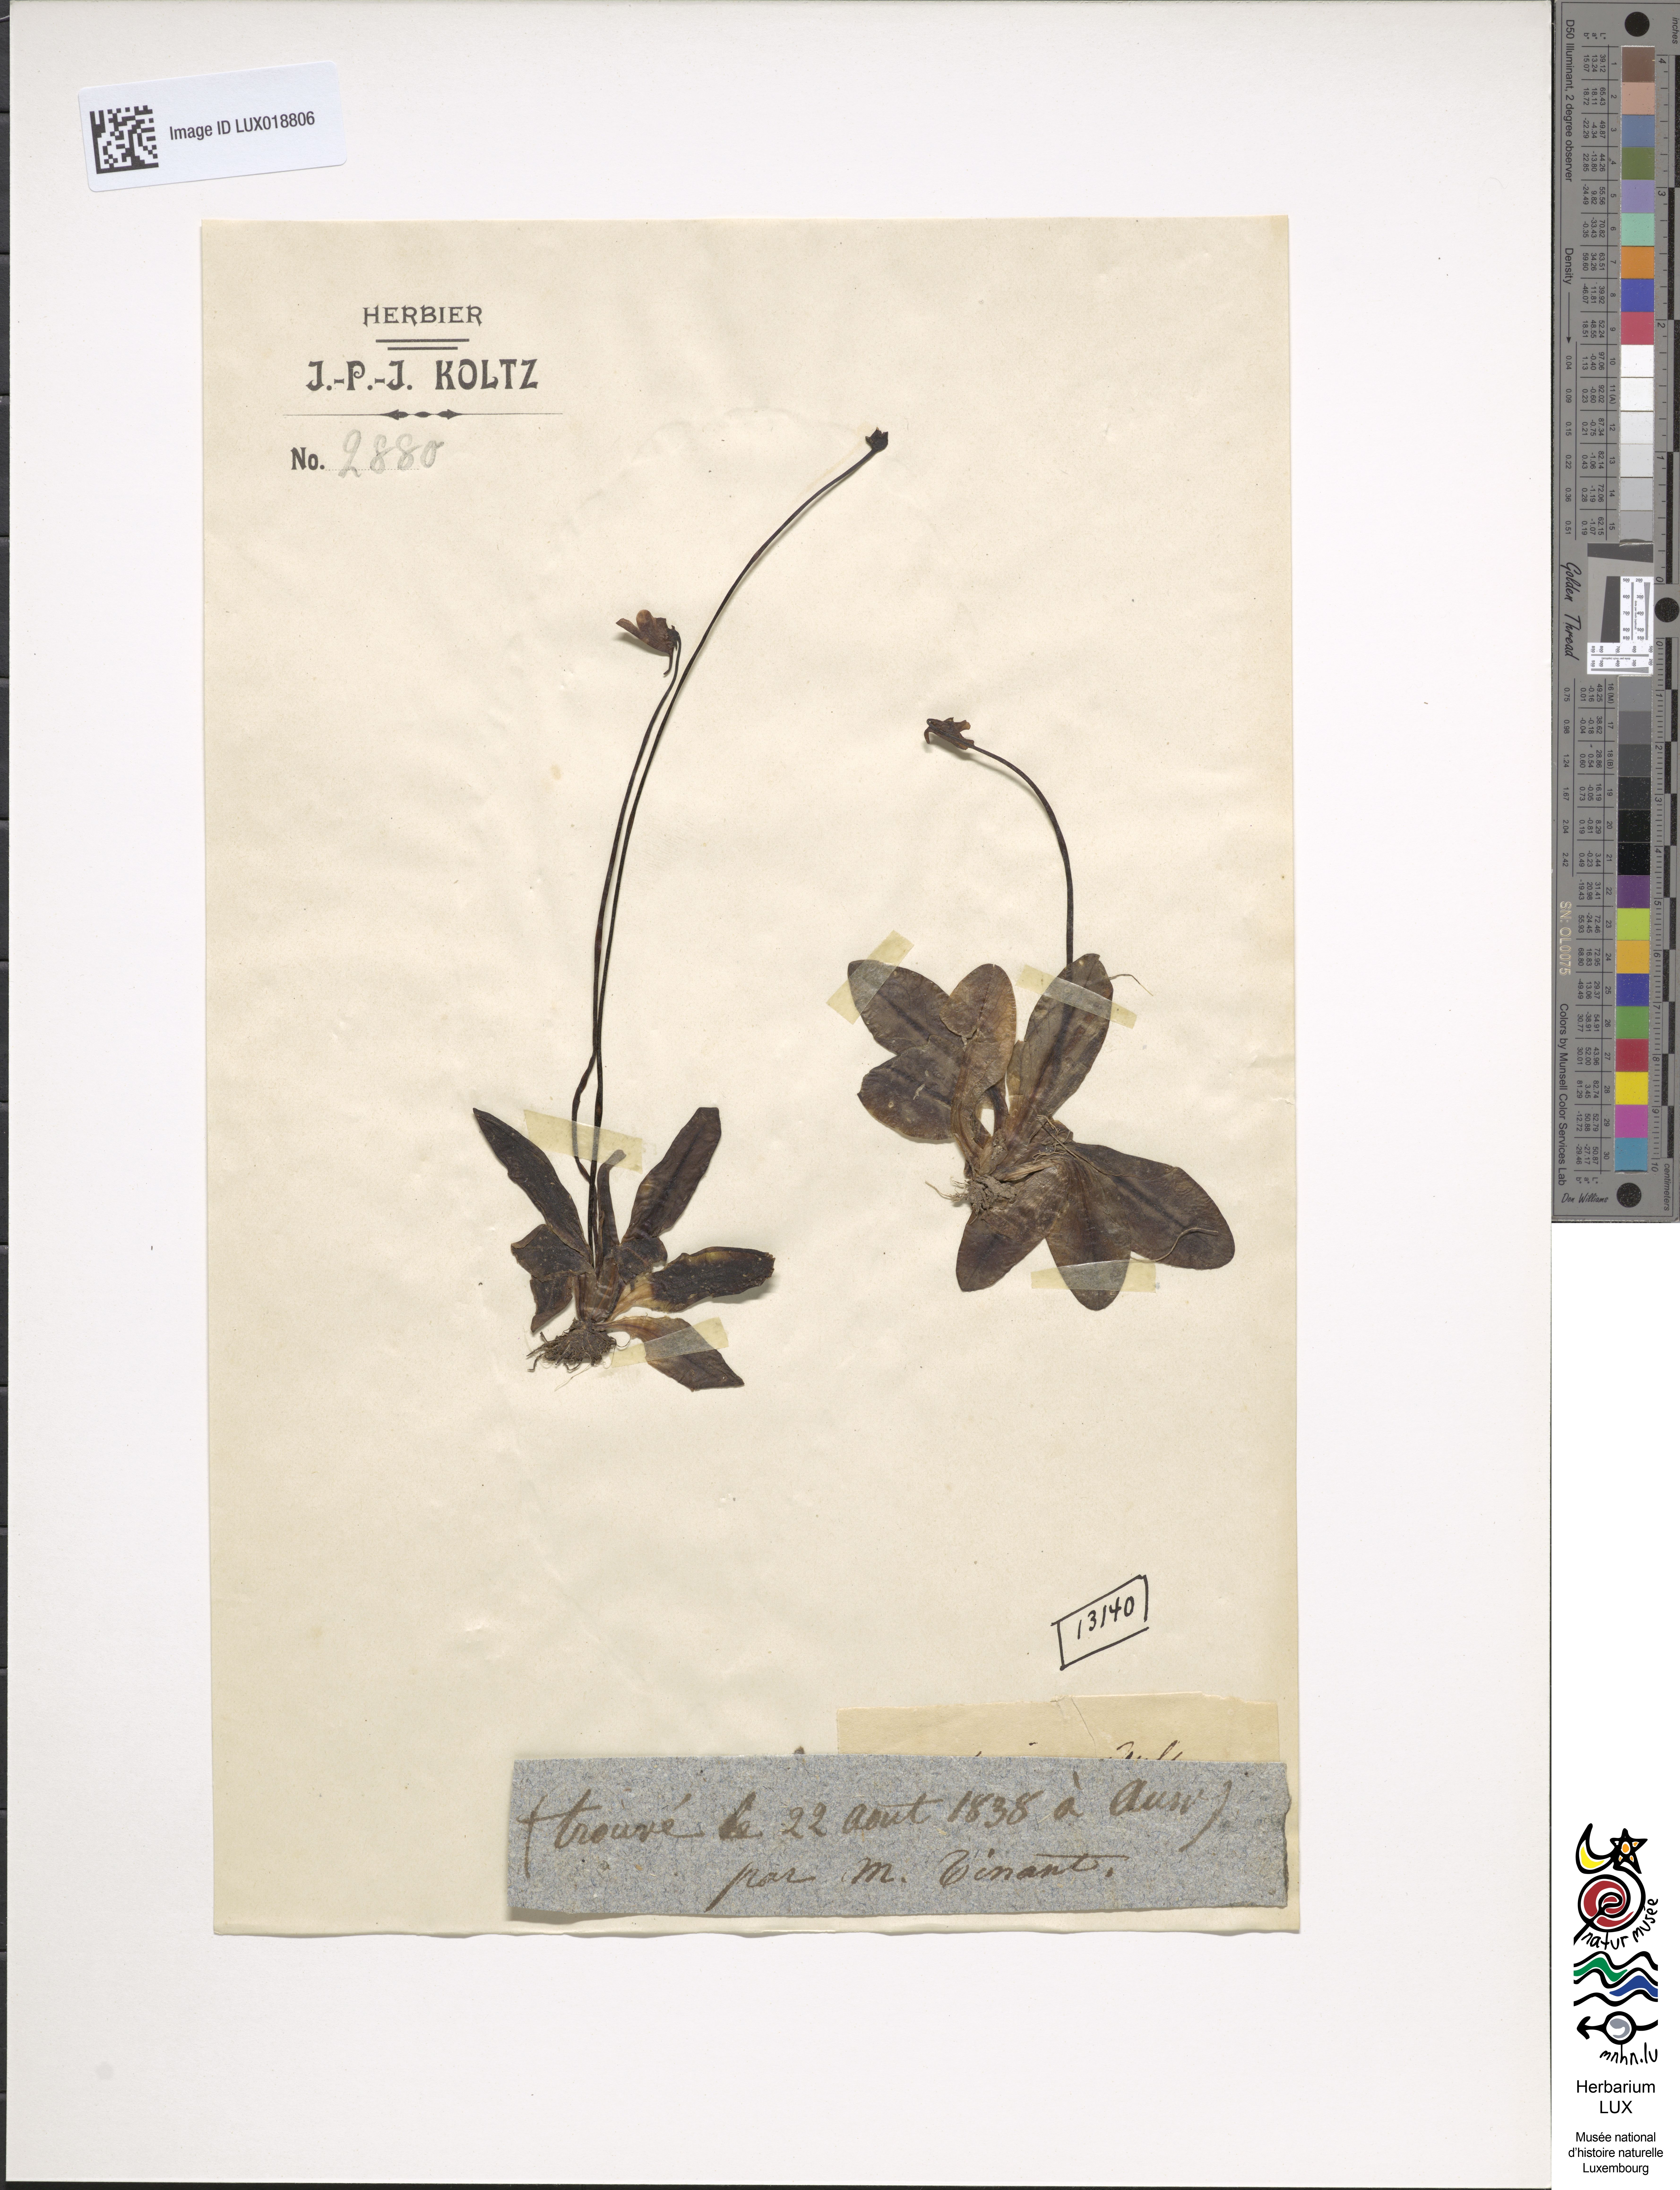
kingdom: Plantae
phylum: Tracheophyta
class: Magnoliopsida
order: Lamiales
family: Lentibulariaceae
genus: Pinguicula
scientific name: Pinguicula vulgaris
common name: Common butterwort
